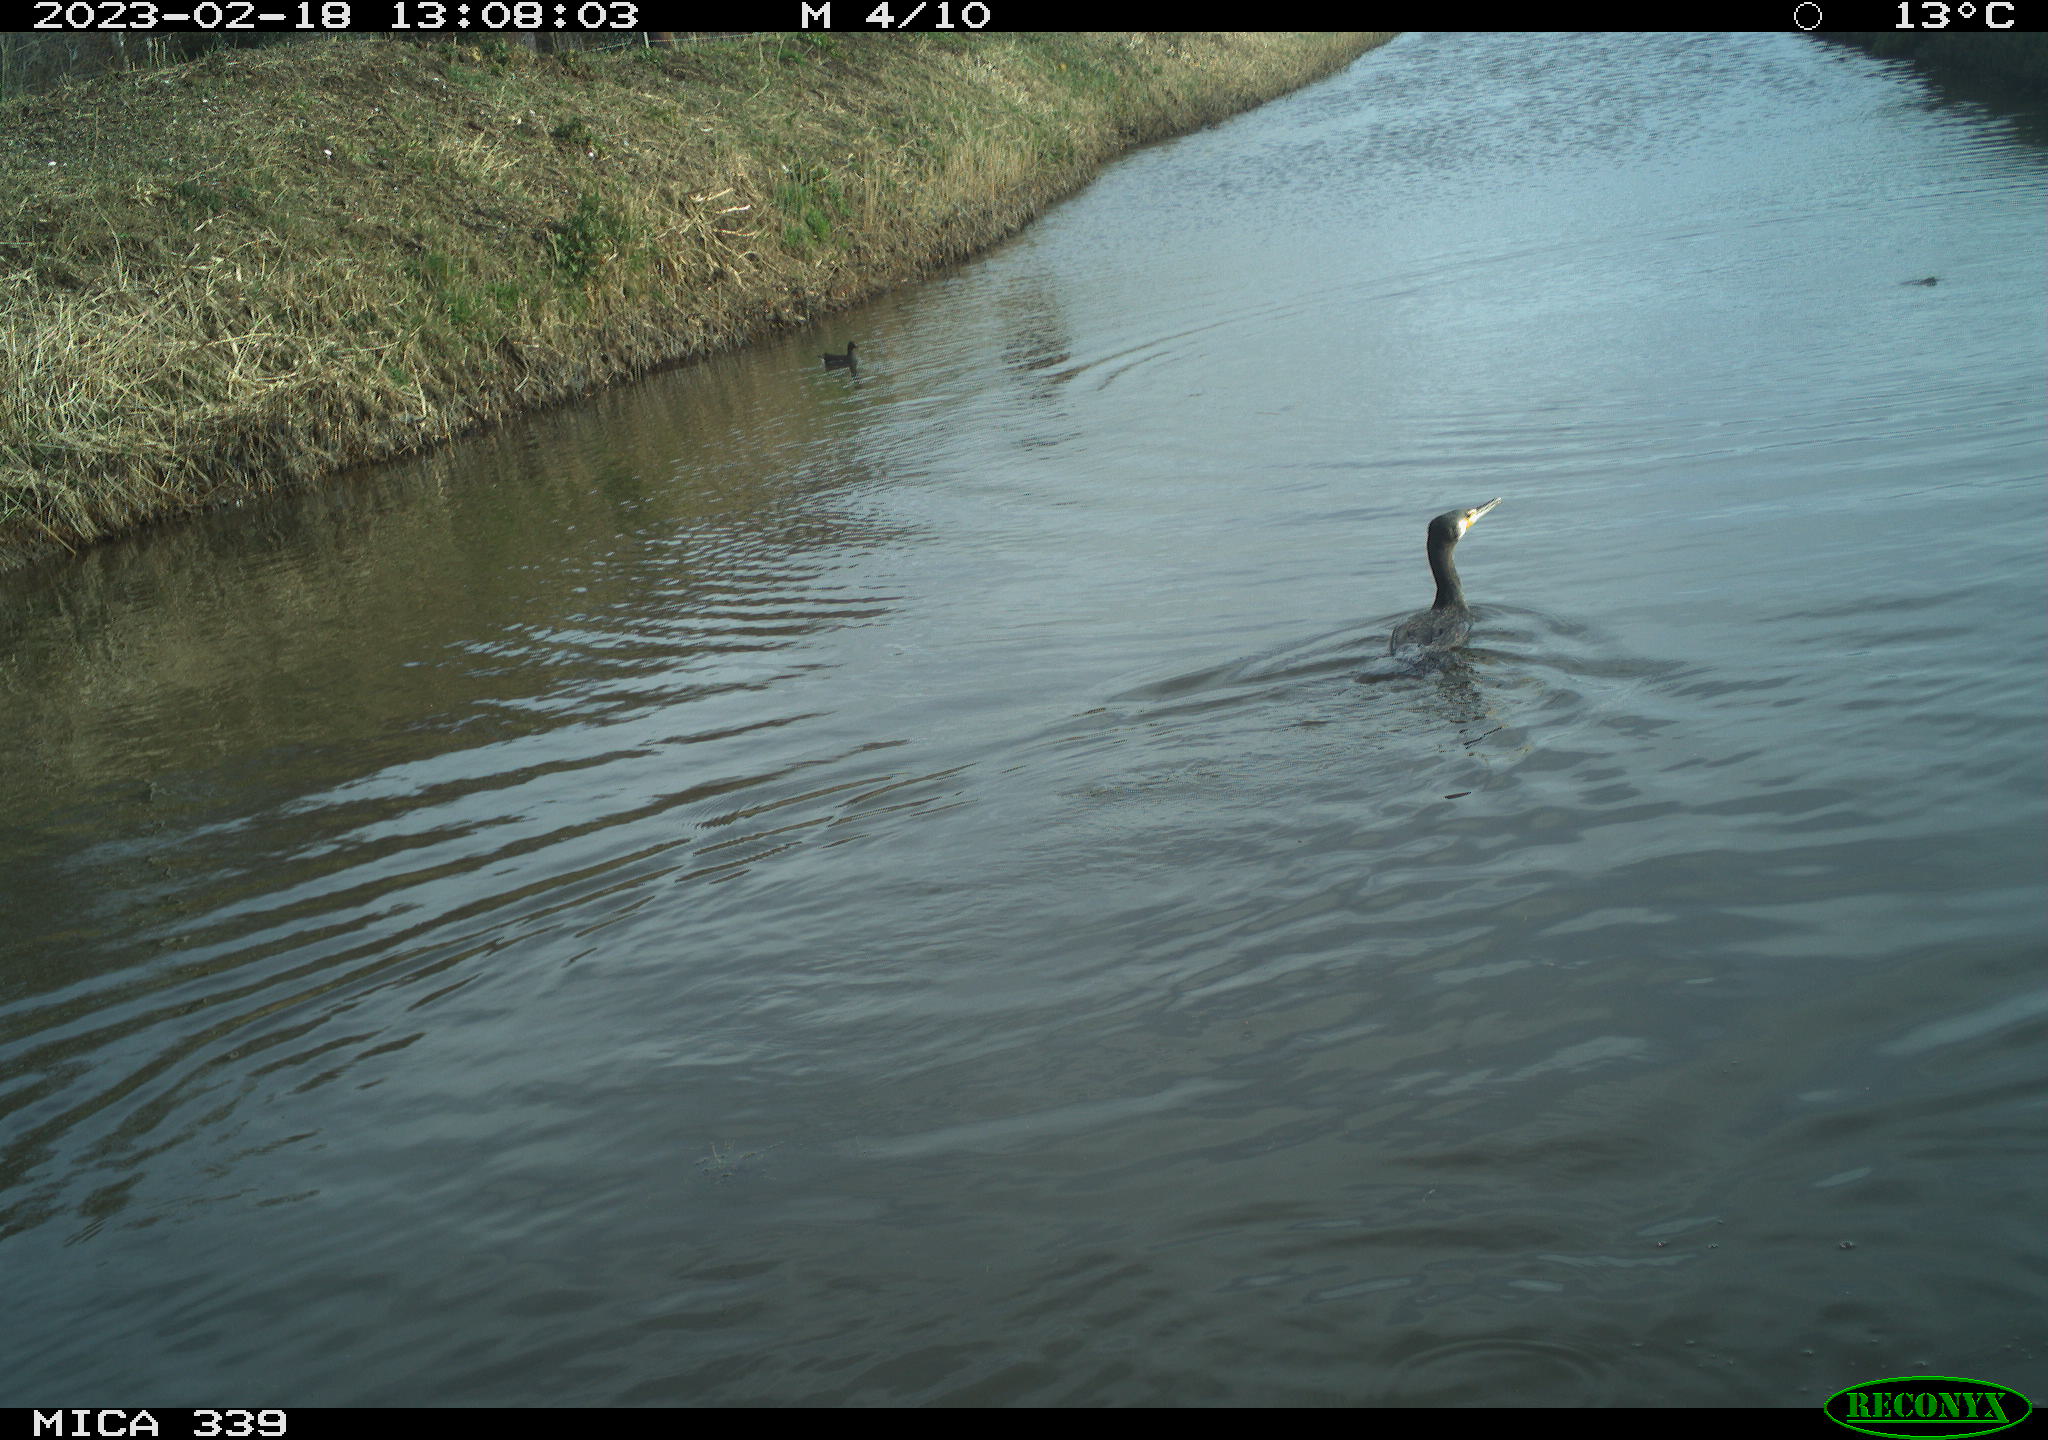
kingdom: Animalia
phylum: Chordata
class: Aves
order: Suliformes
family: Phalacrocoracidae
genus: Phalacrocorax
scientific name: Phalacrocorax carbo
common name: Great cormorant
